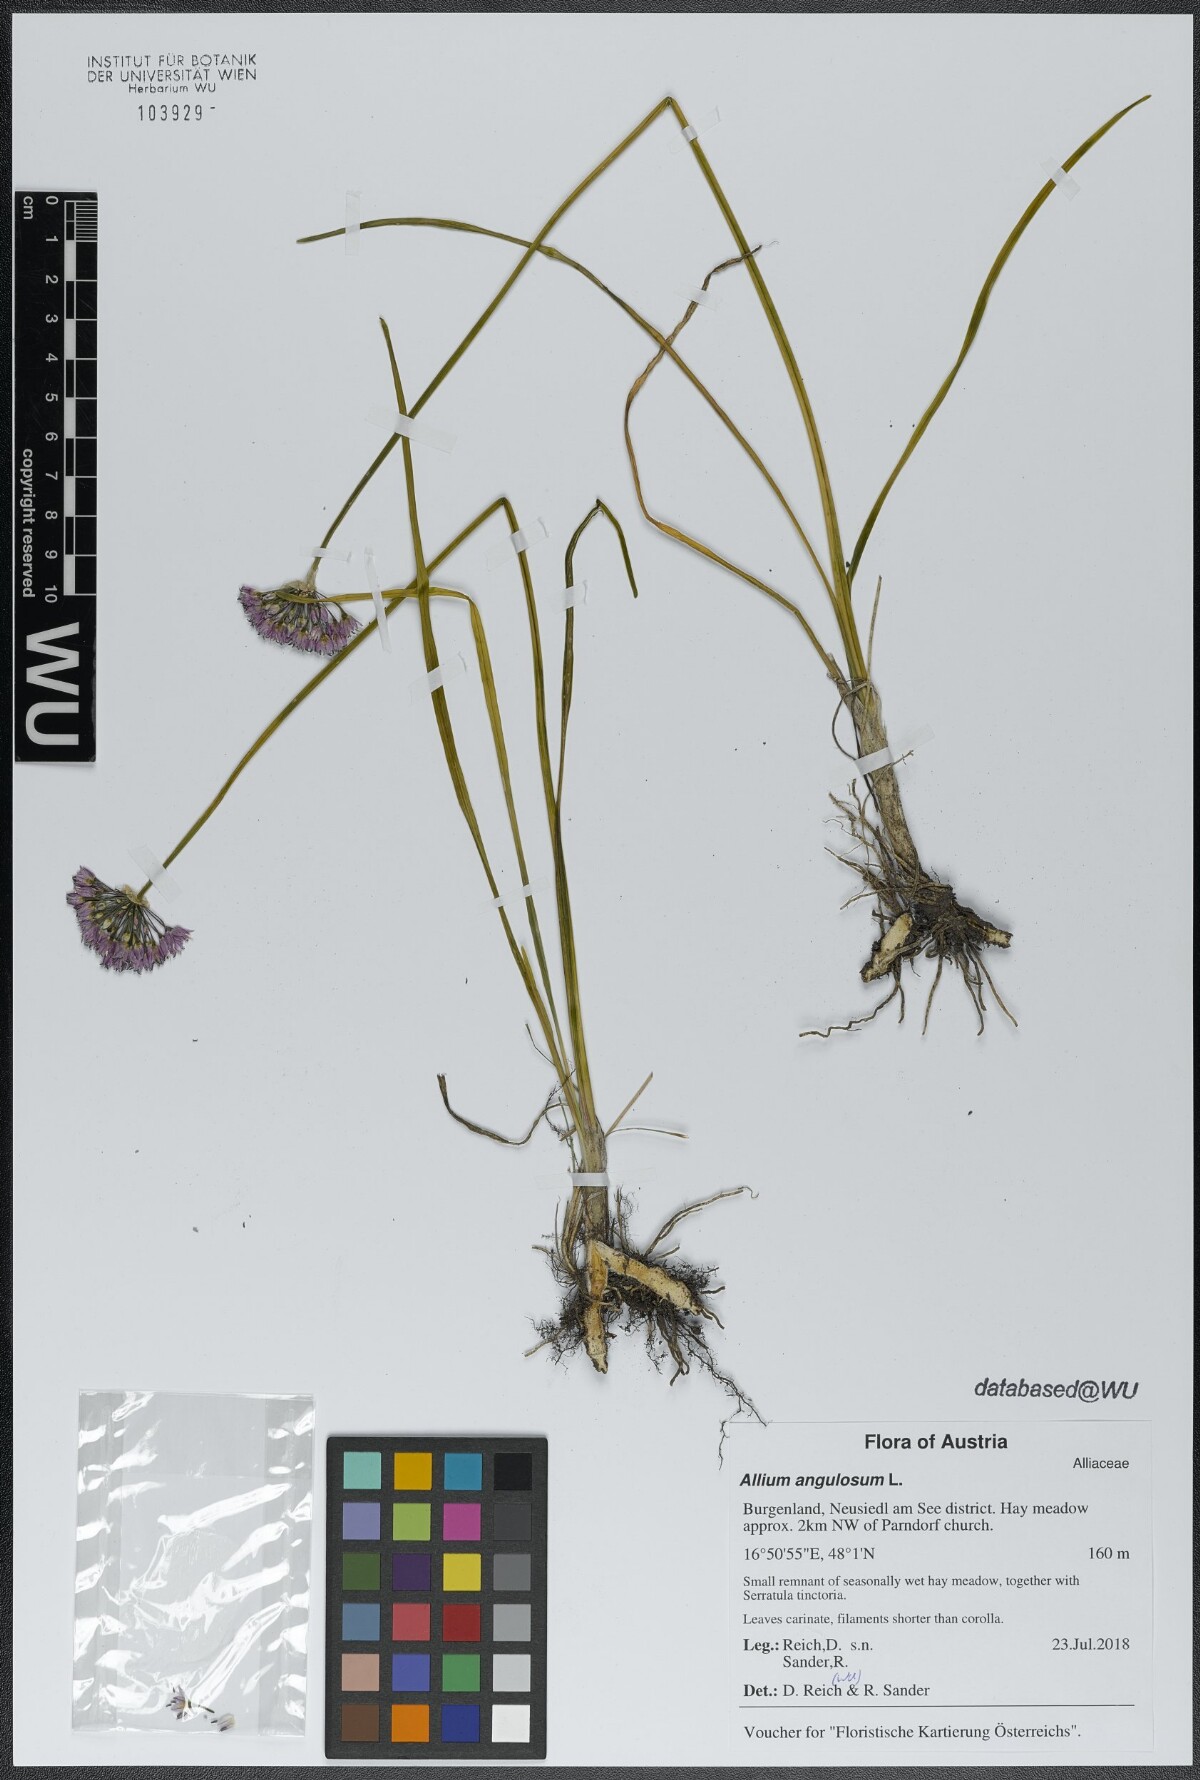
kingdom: Plantae
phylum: Tracheophyta
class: Liliopsida
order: Asparagales
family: Amaryllidaceae
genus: Allium
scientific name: Allium angulosum
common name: Mouse garlic
